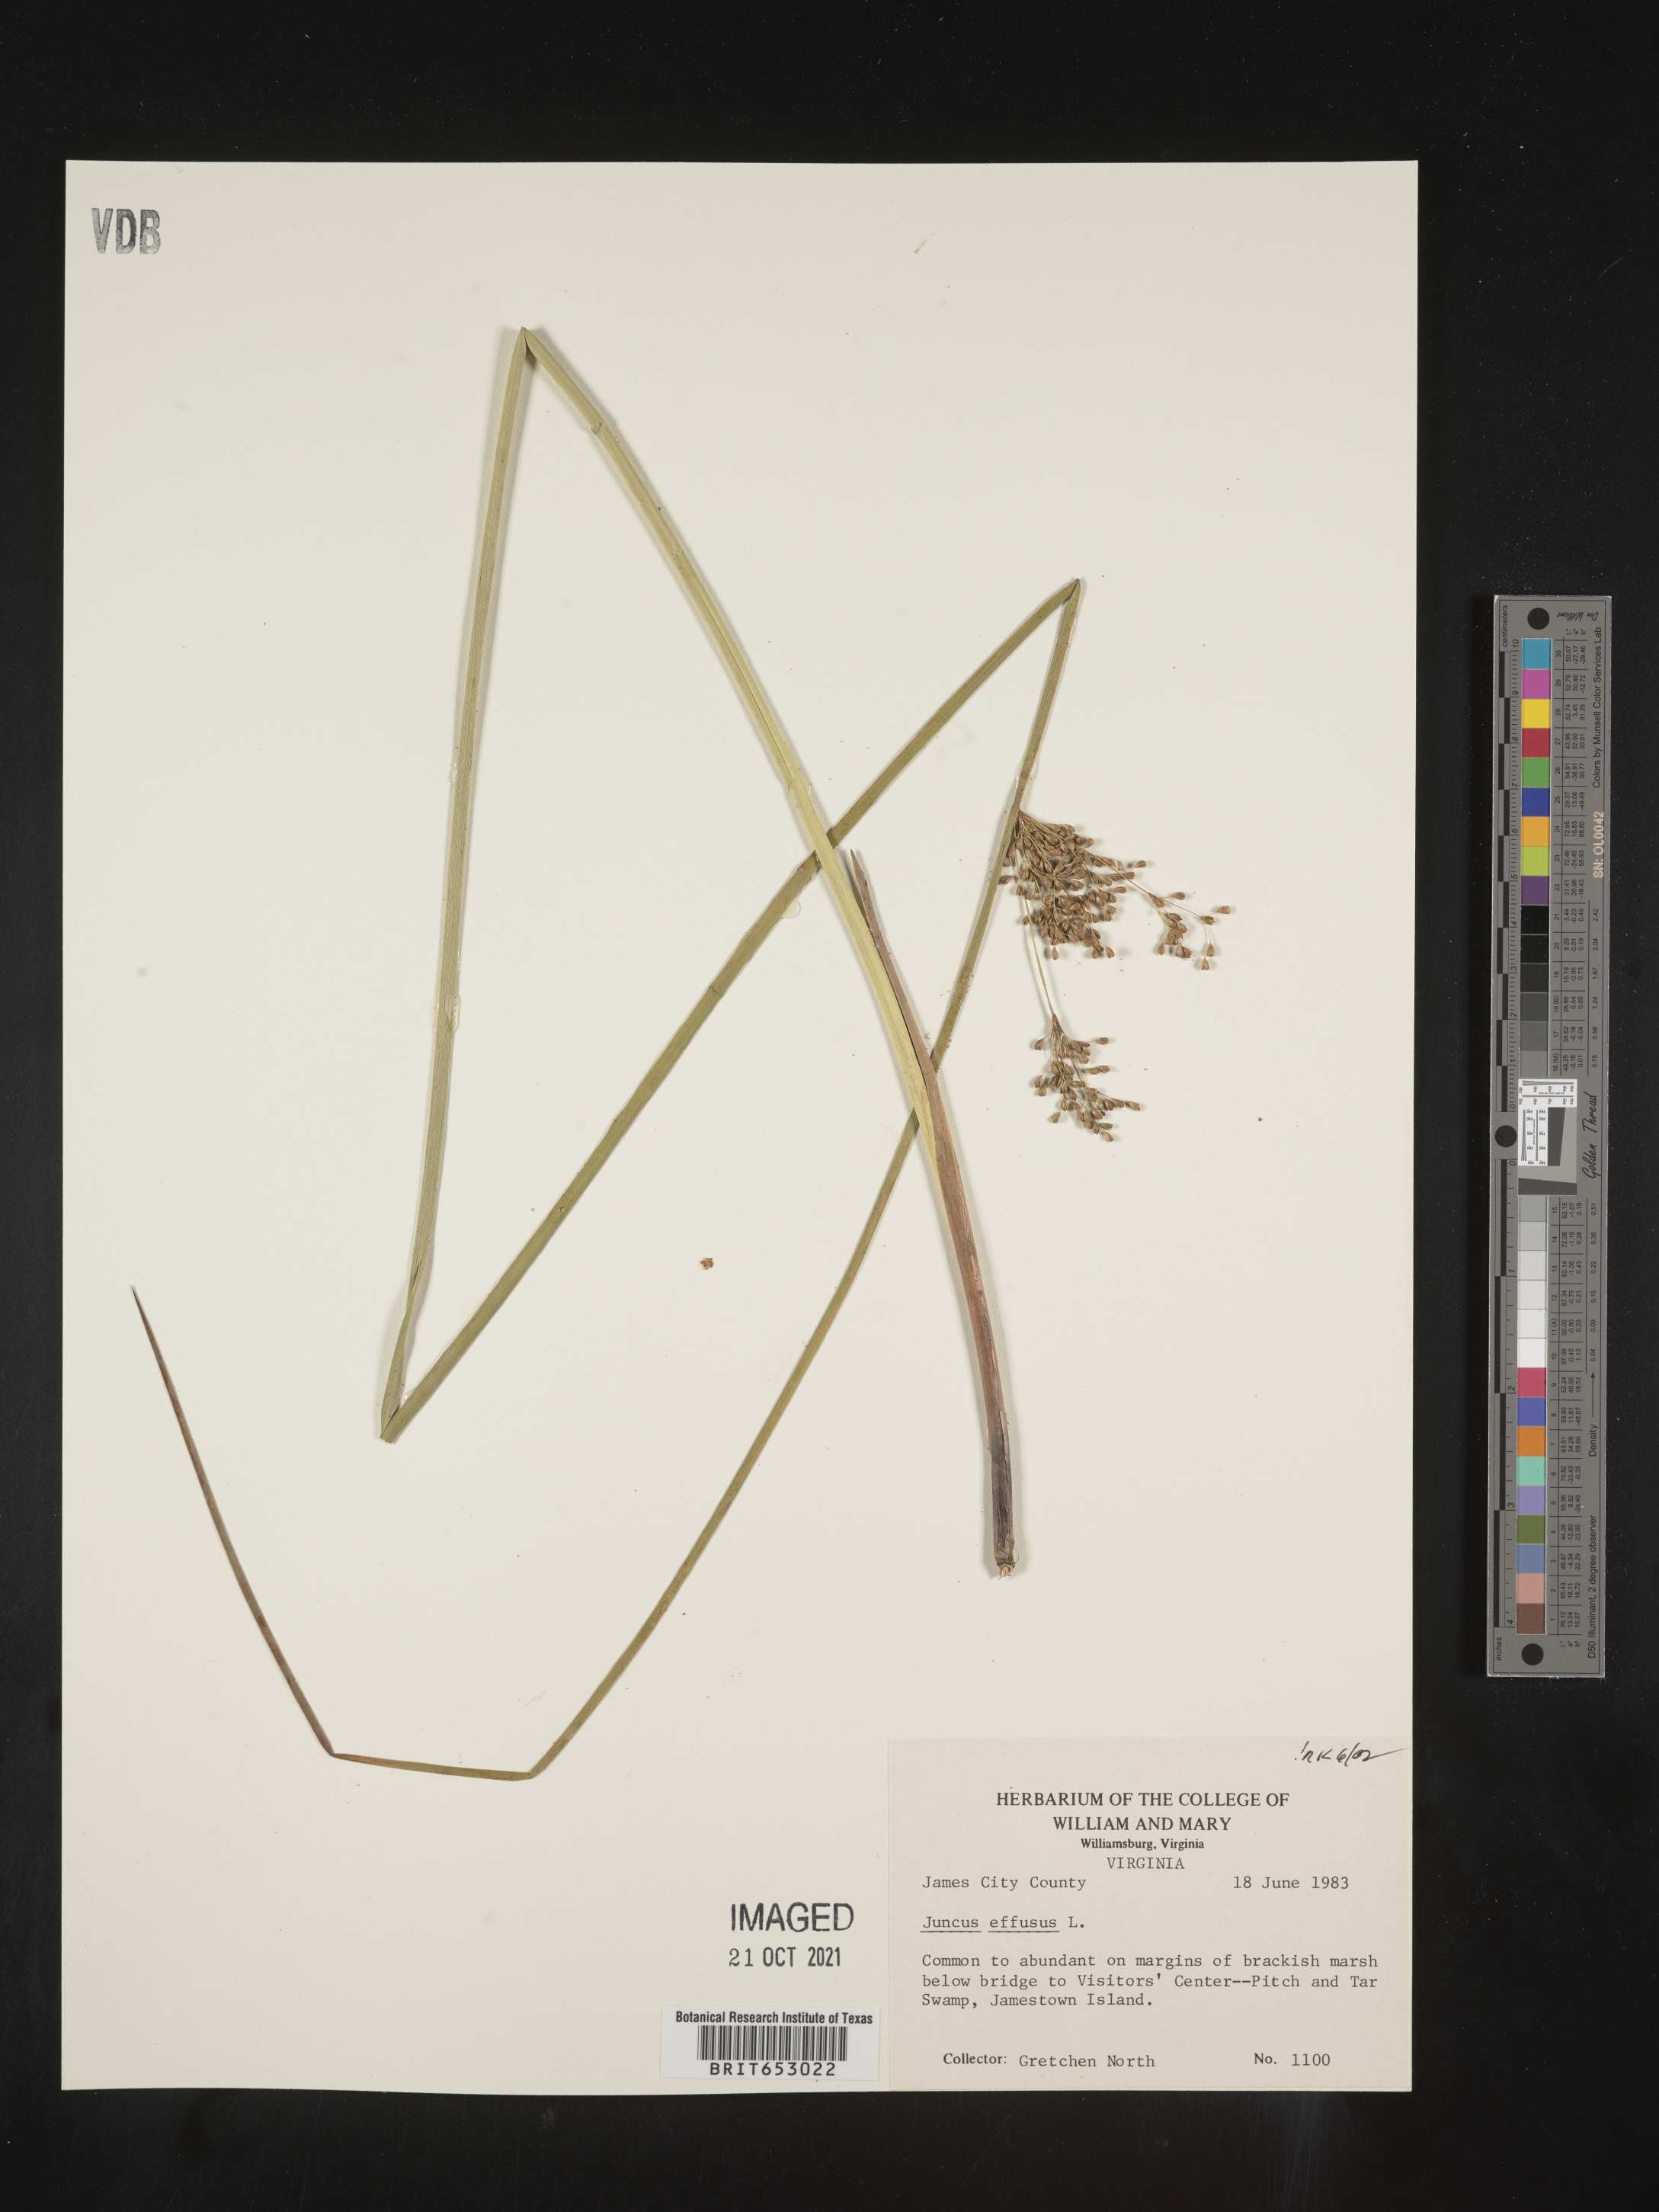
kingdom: Plantae
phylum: Tracheophyta
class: Liliopsida
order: Poales
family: Juncaceae
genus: Juncus
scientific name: Juncus effusus
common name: Soft rush
